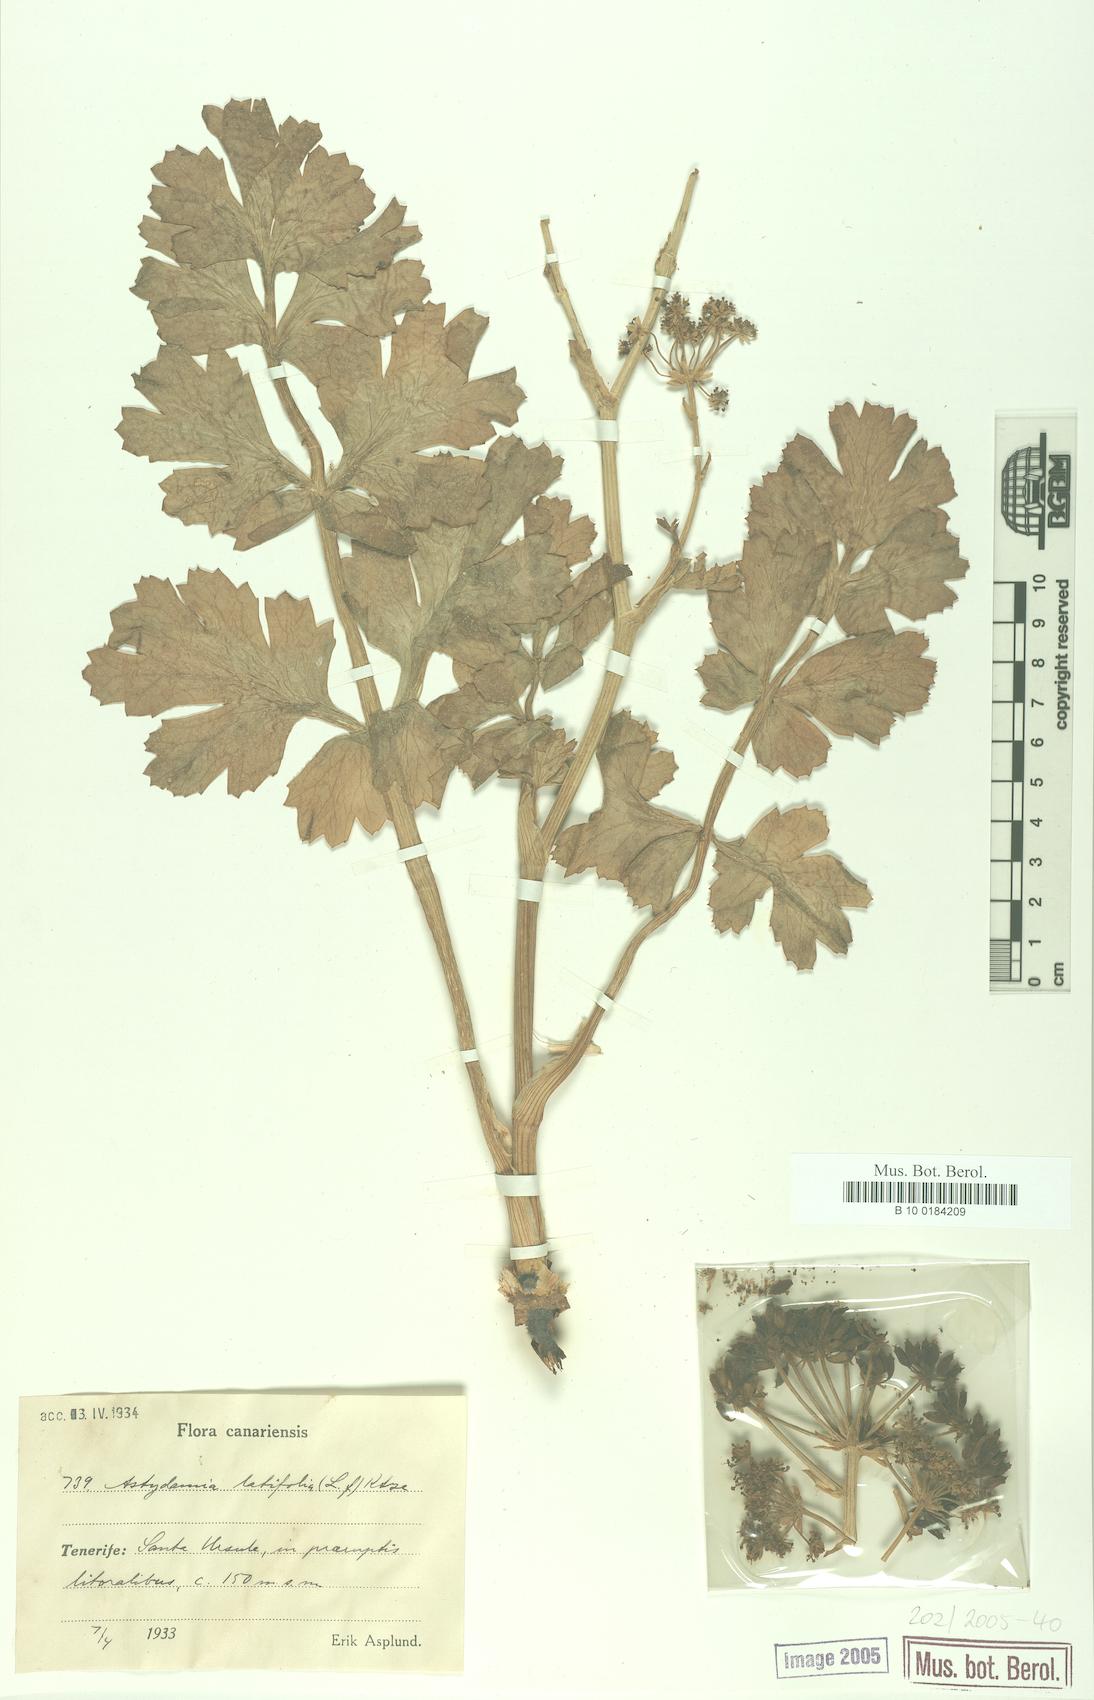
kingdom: Plantae
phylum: Tracheophyta
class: Magnoliopsida
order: Apiales
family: Apiaceae
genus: Astydamia
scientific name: Astydamia latifolia
